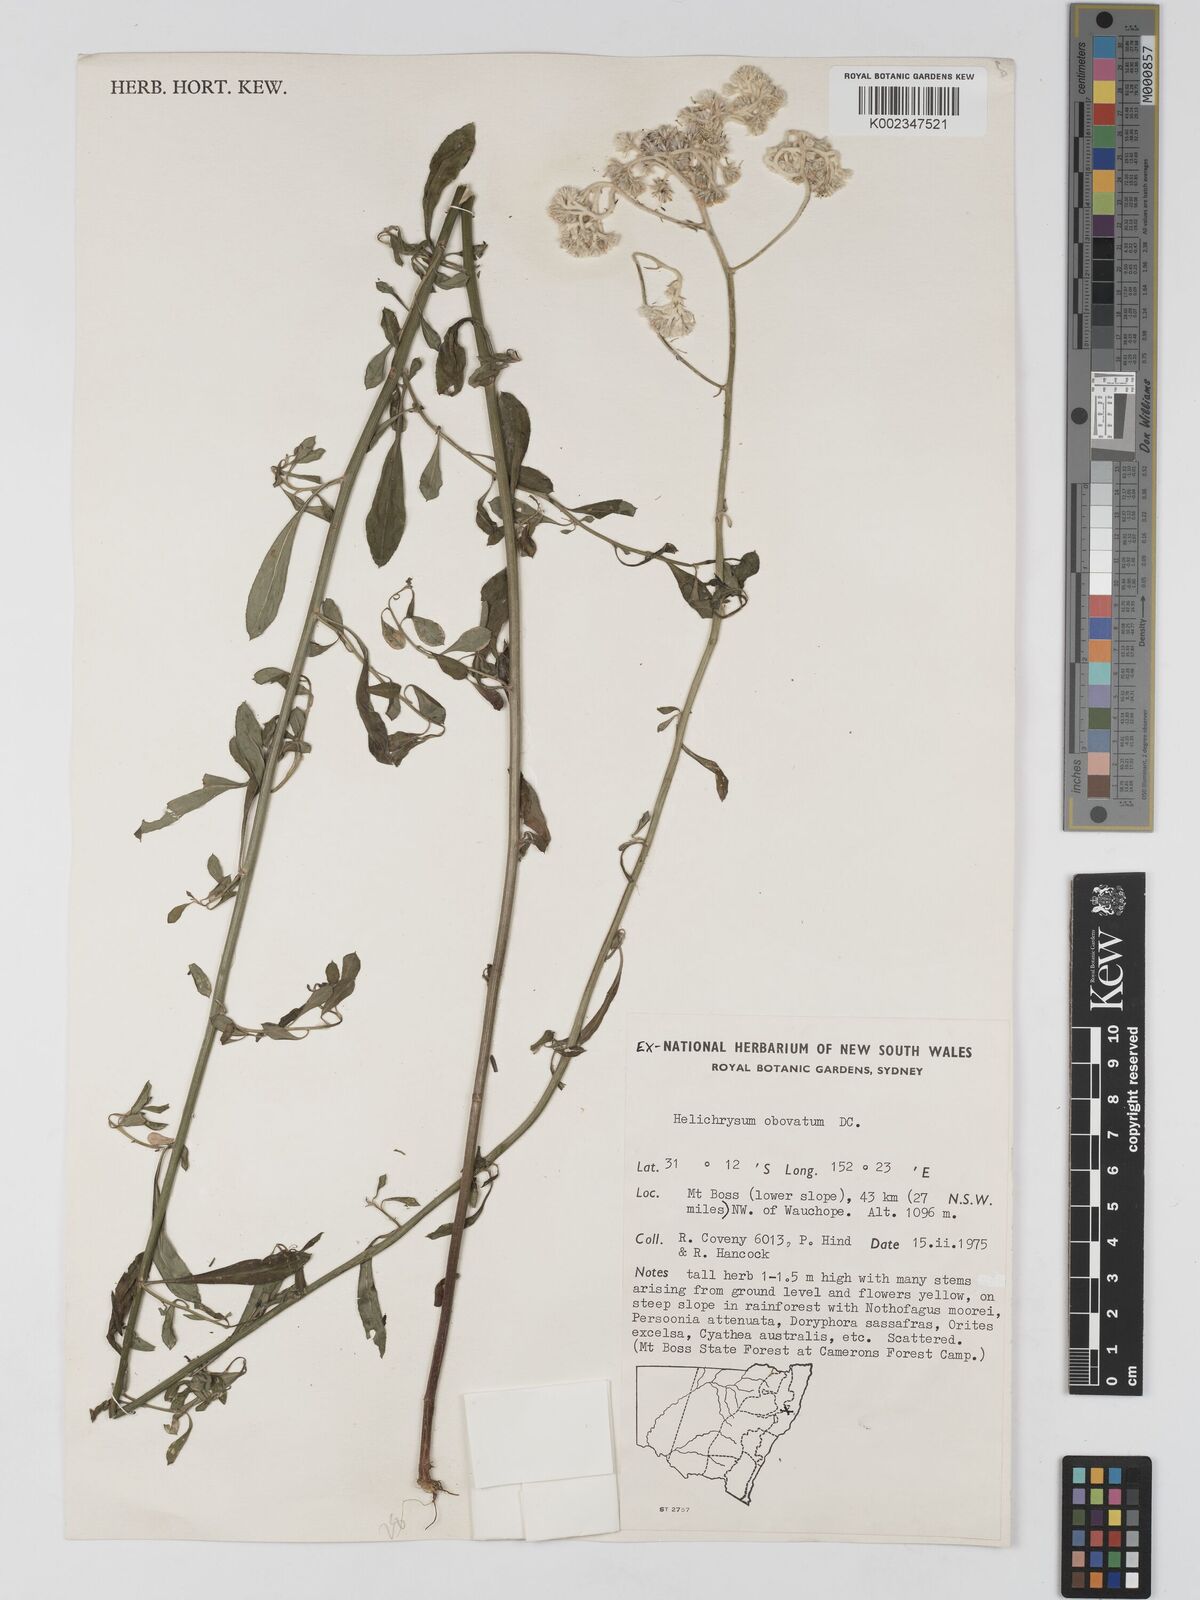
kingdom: Plantae
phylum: Tracheophyta
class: Magnoliopsida
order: Asterales
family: Asteraceae
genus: Ozothamnus
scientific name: Ozothamnus obovatus
